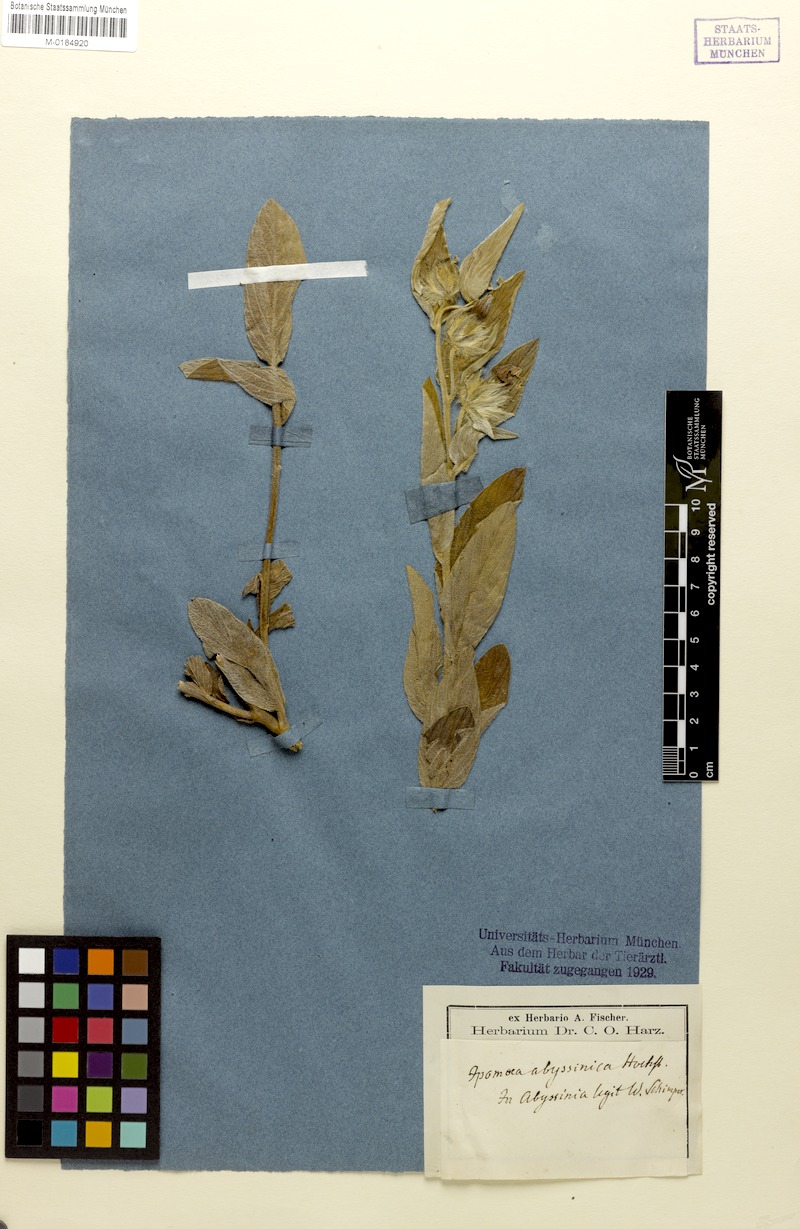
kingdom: Plantae
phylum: Tracheophyta
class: Magnoliopsida
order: Solanales
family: Convolvulaceae
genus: Ipomoea
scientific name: Ipomoea abyssinica
